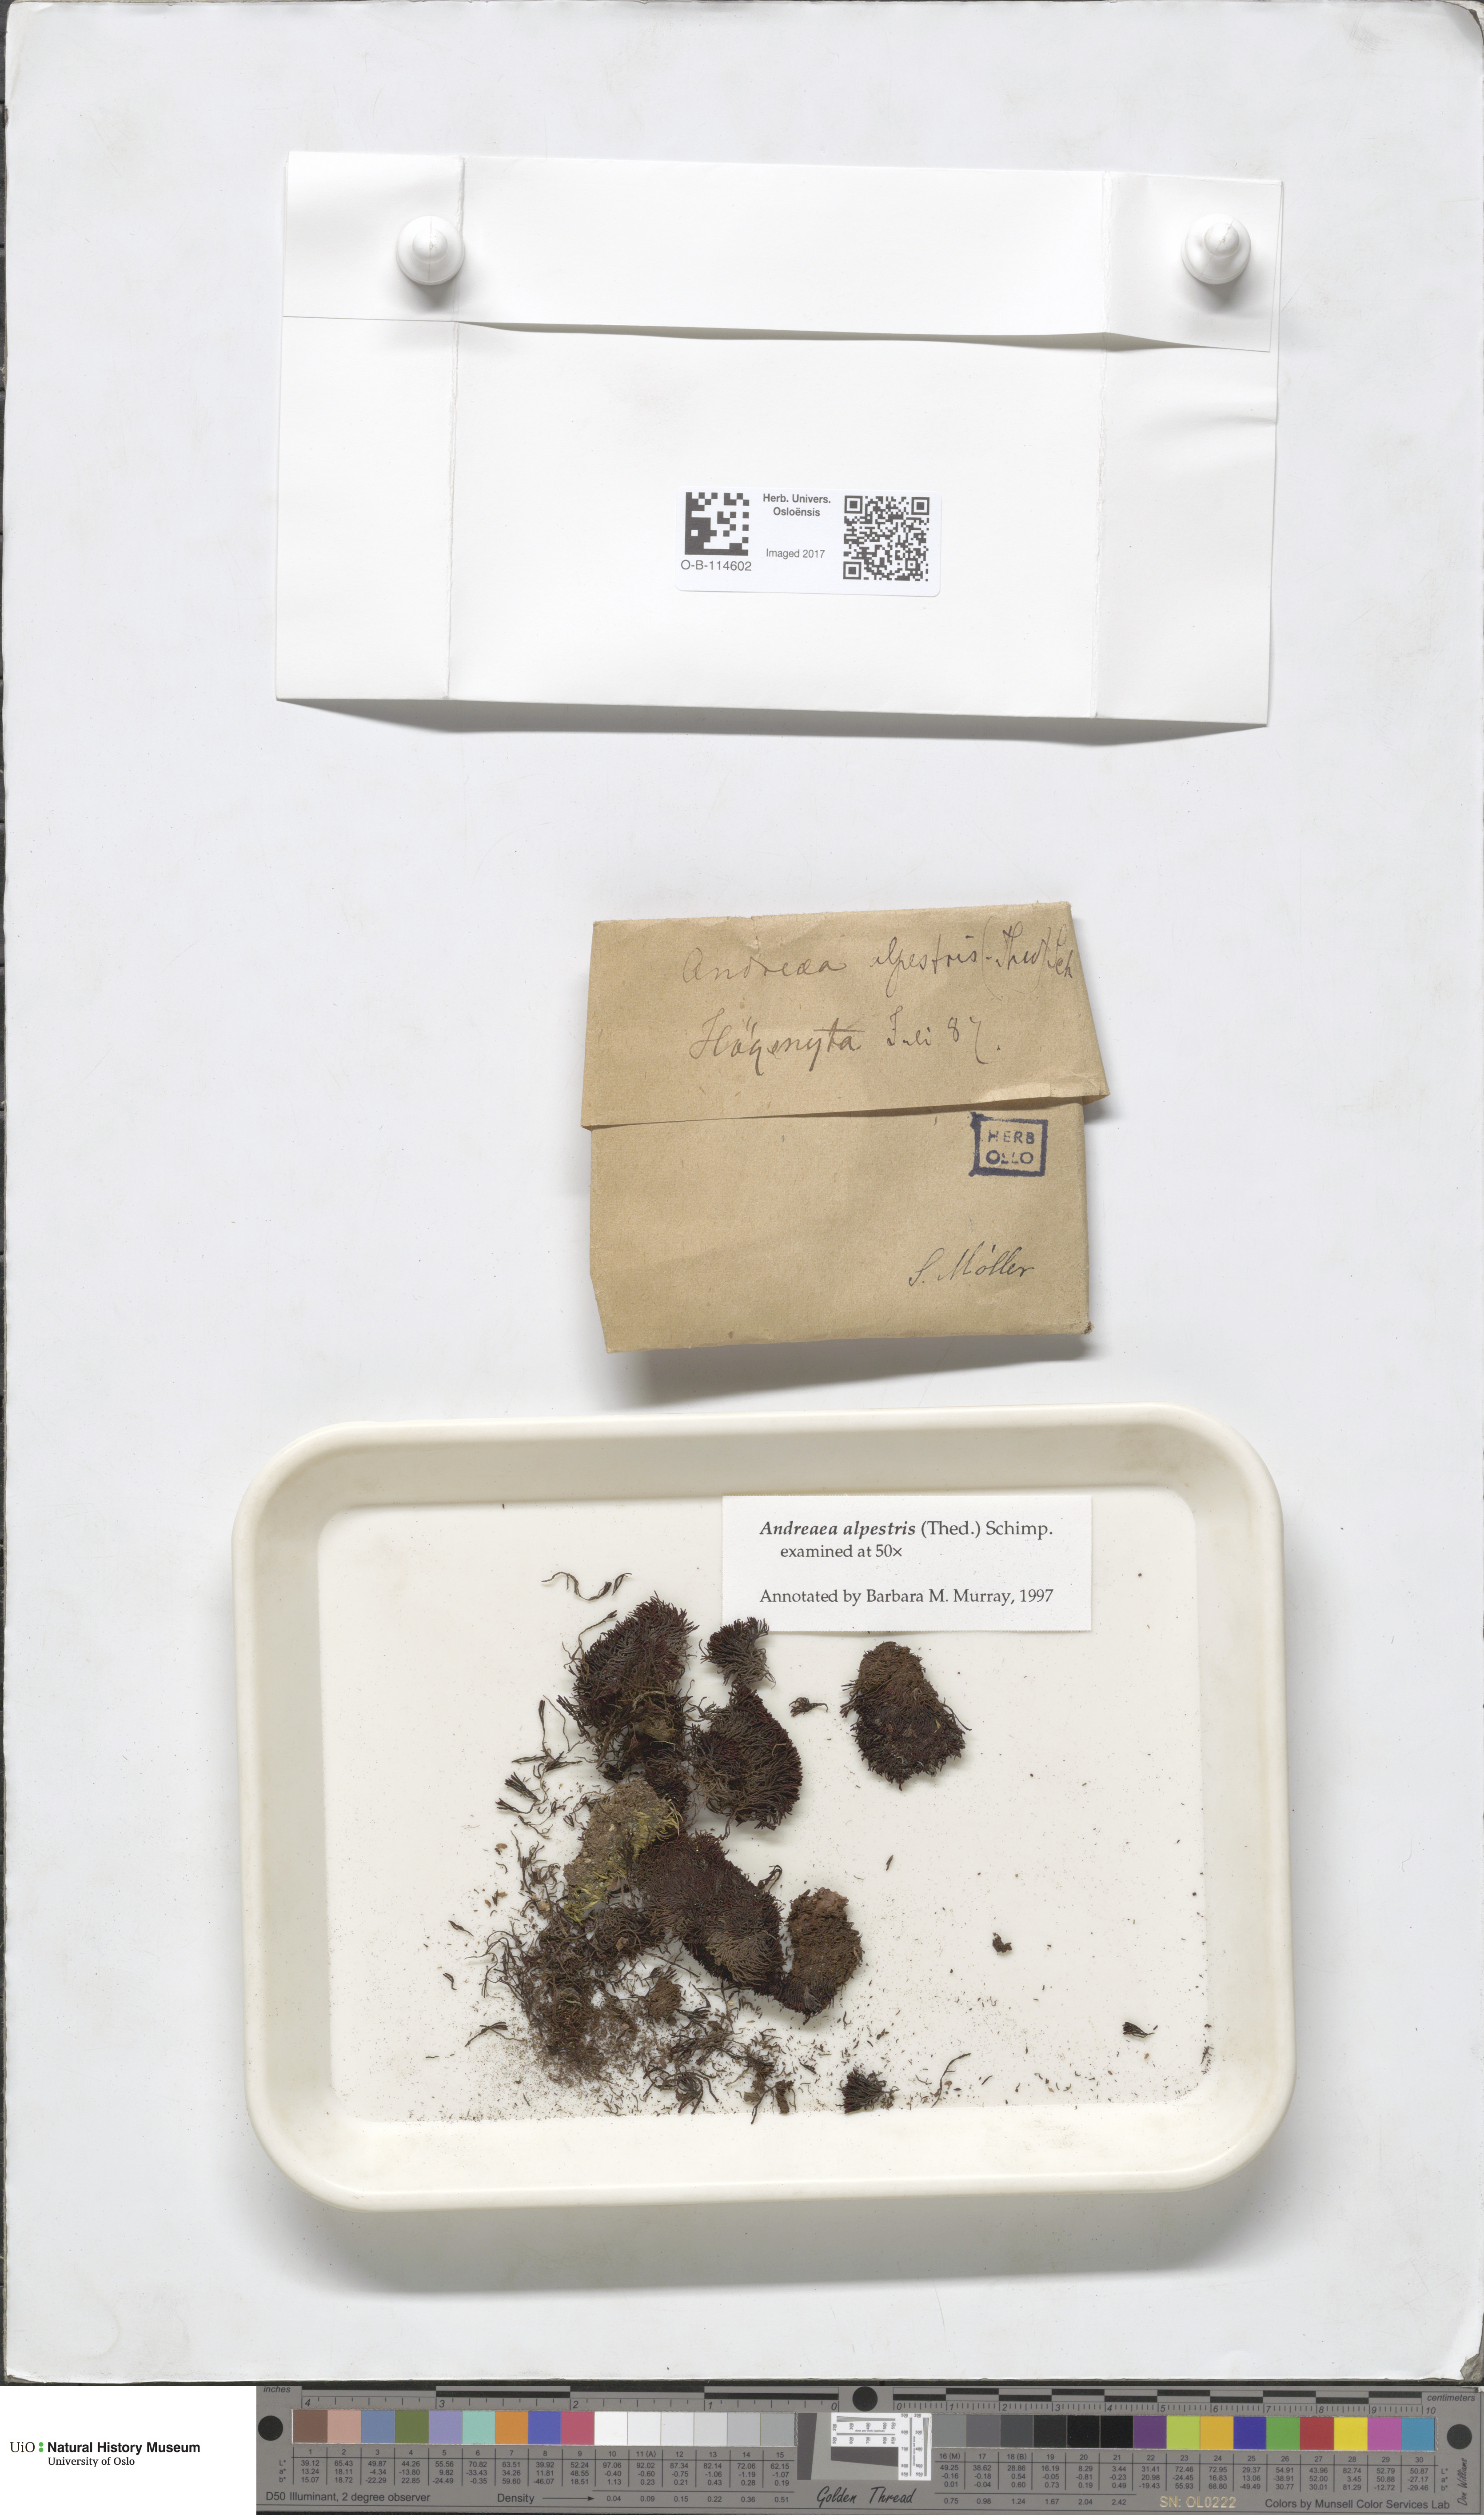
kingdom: Plantae
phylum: Bryophyta
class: Andreaeopsida
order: Andreaeales
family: Andreaeaceae
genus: Andreaea
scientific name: Andreaea alpestris
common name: Slender rock-moss
